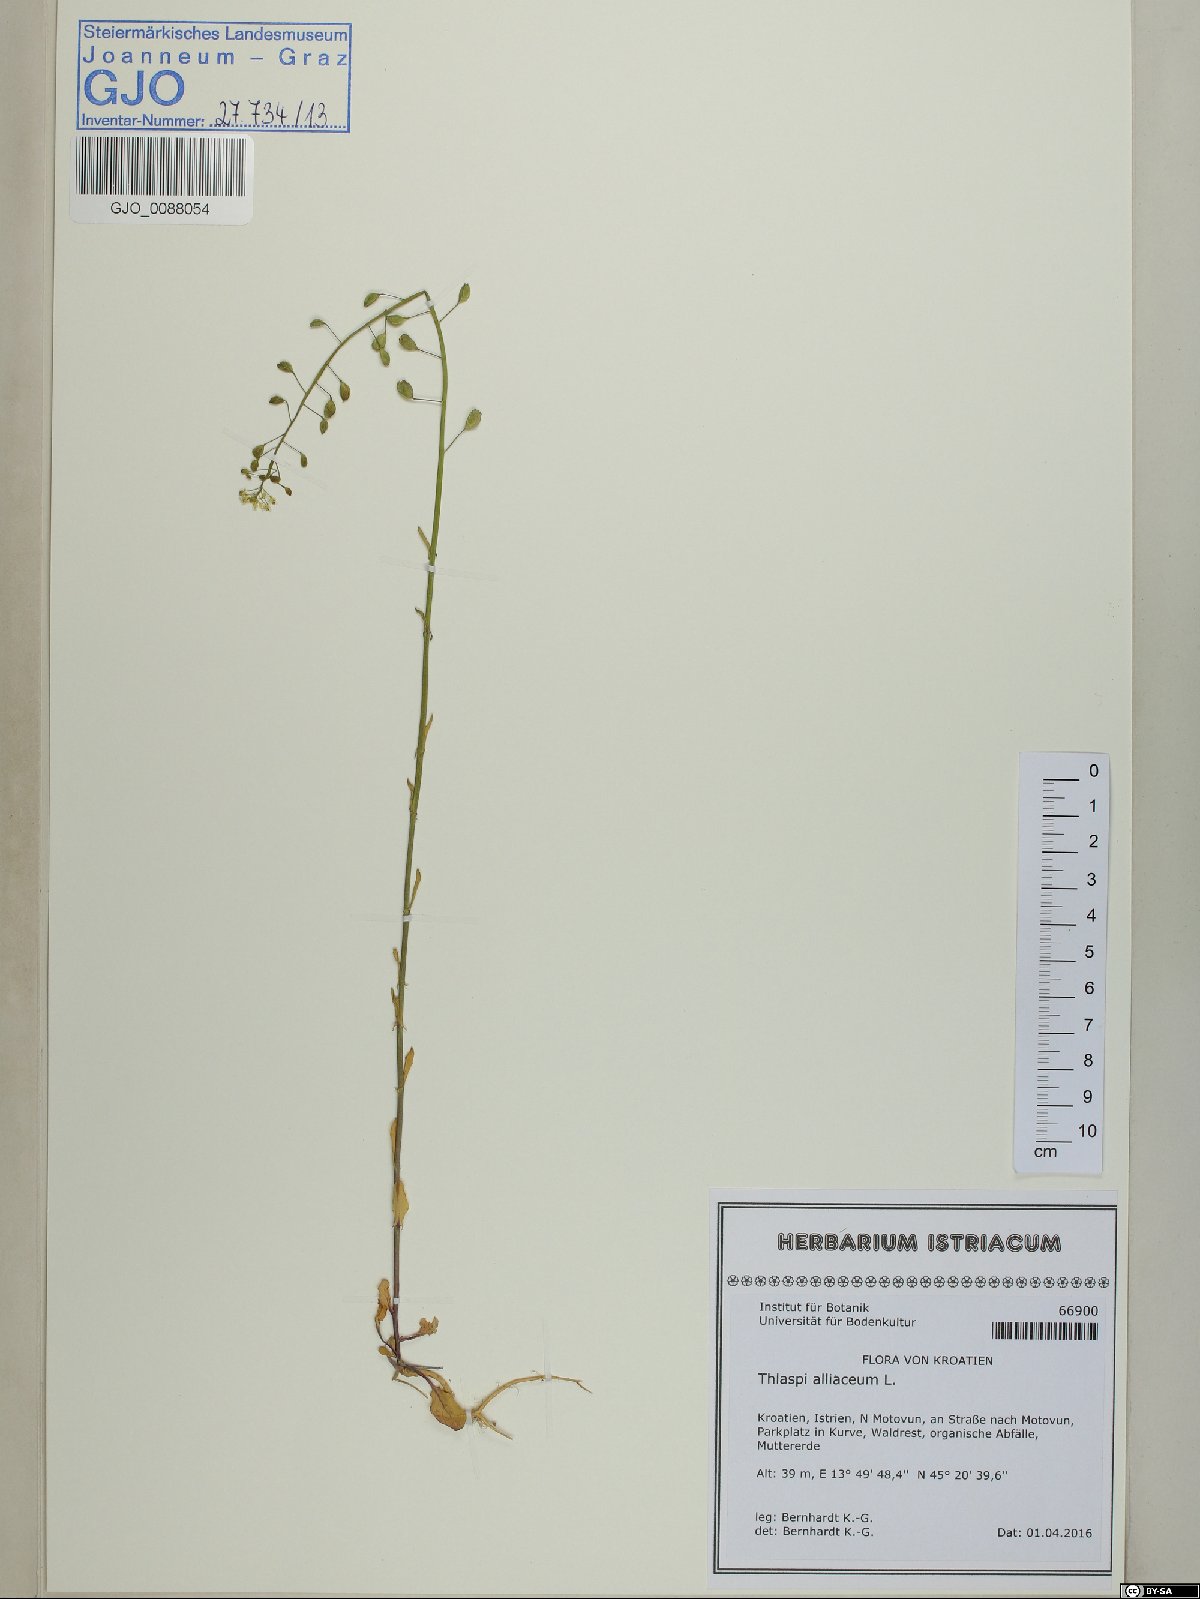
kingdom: Plantae
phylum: Tracheophyta
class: Magnoliopsida
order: Brassicales
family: Brassicaceae
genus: Mummenhoffia
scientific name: Mummenhoffia alliacea
